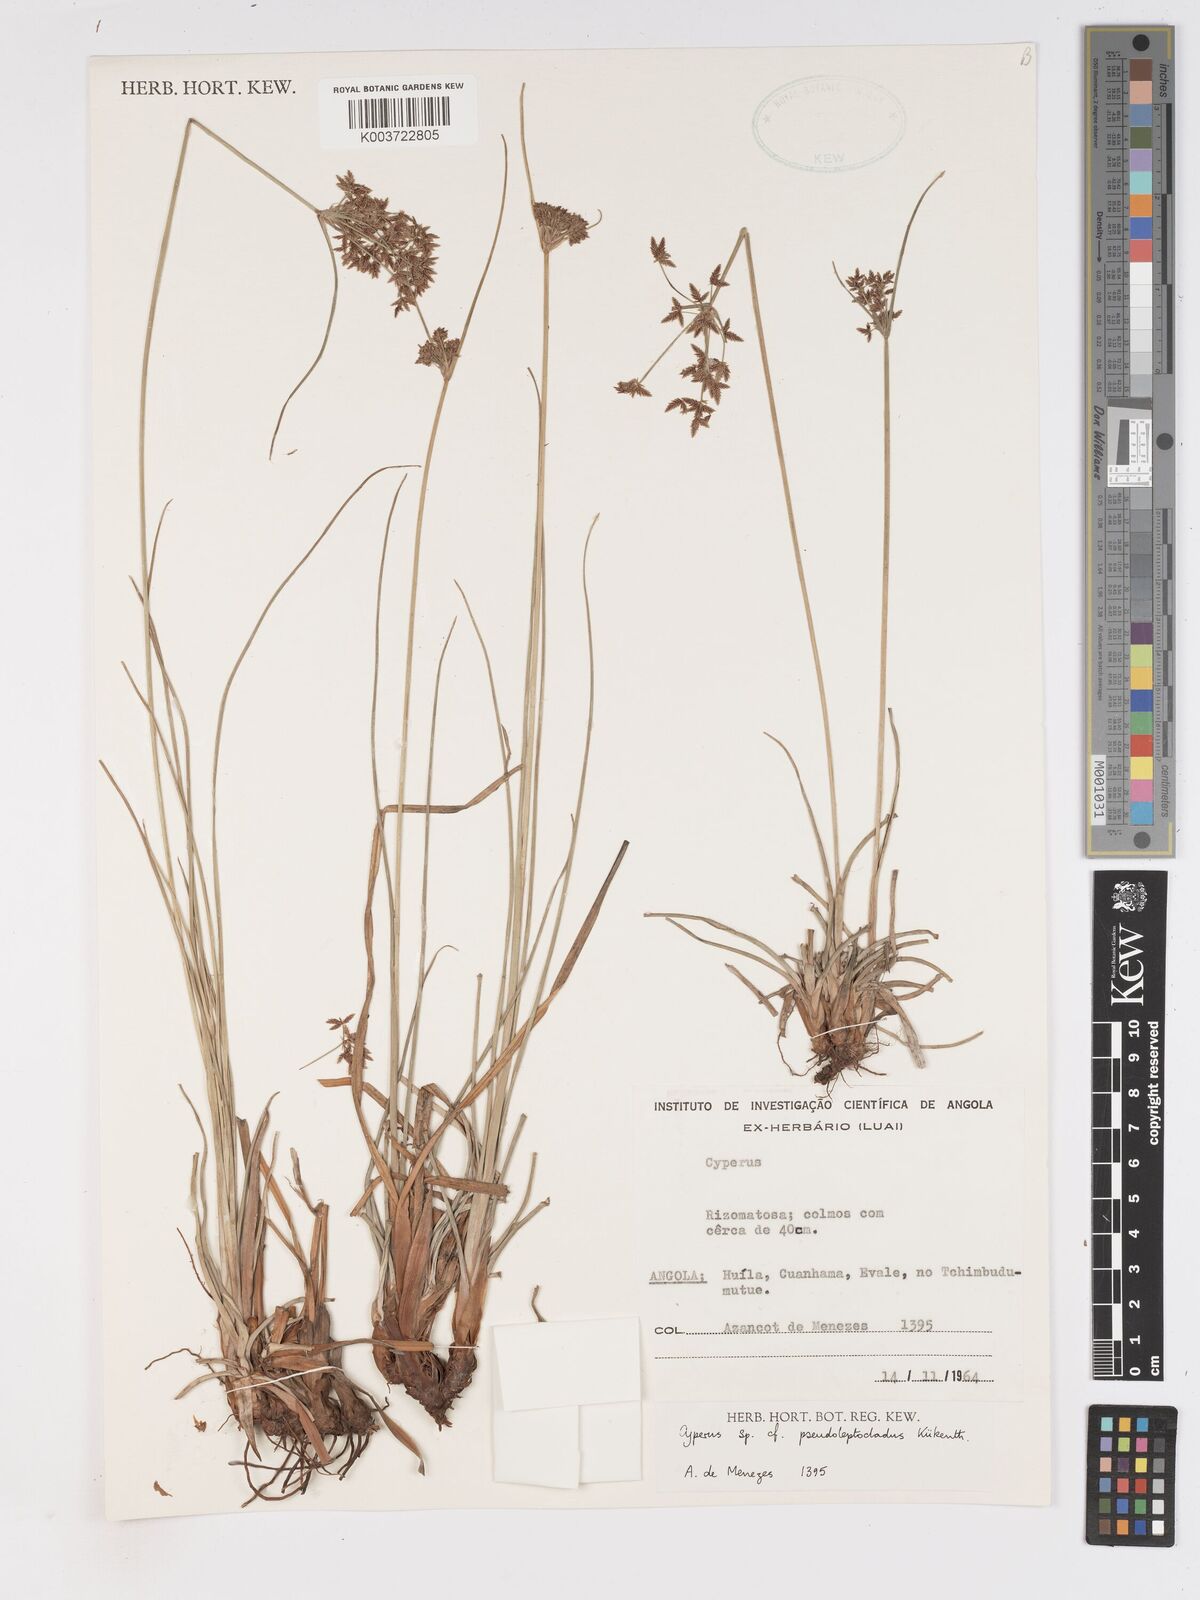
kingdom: Plantae
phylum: Tracheophyta
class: Liliopsida
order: Poales
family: Cyperaceae
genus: Cyperus
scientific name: Cyperus glaucophyllus
